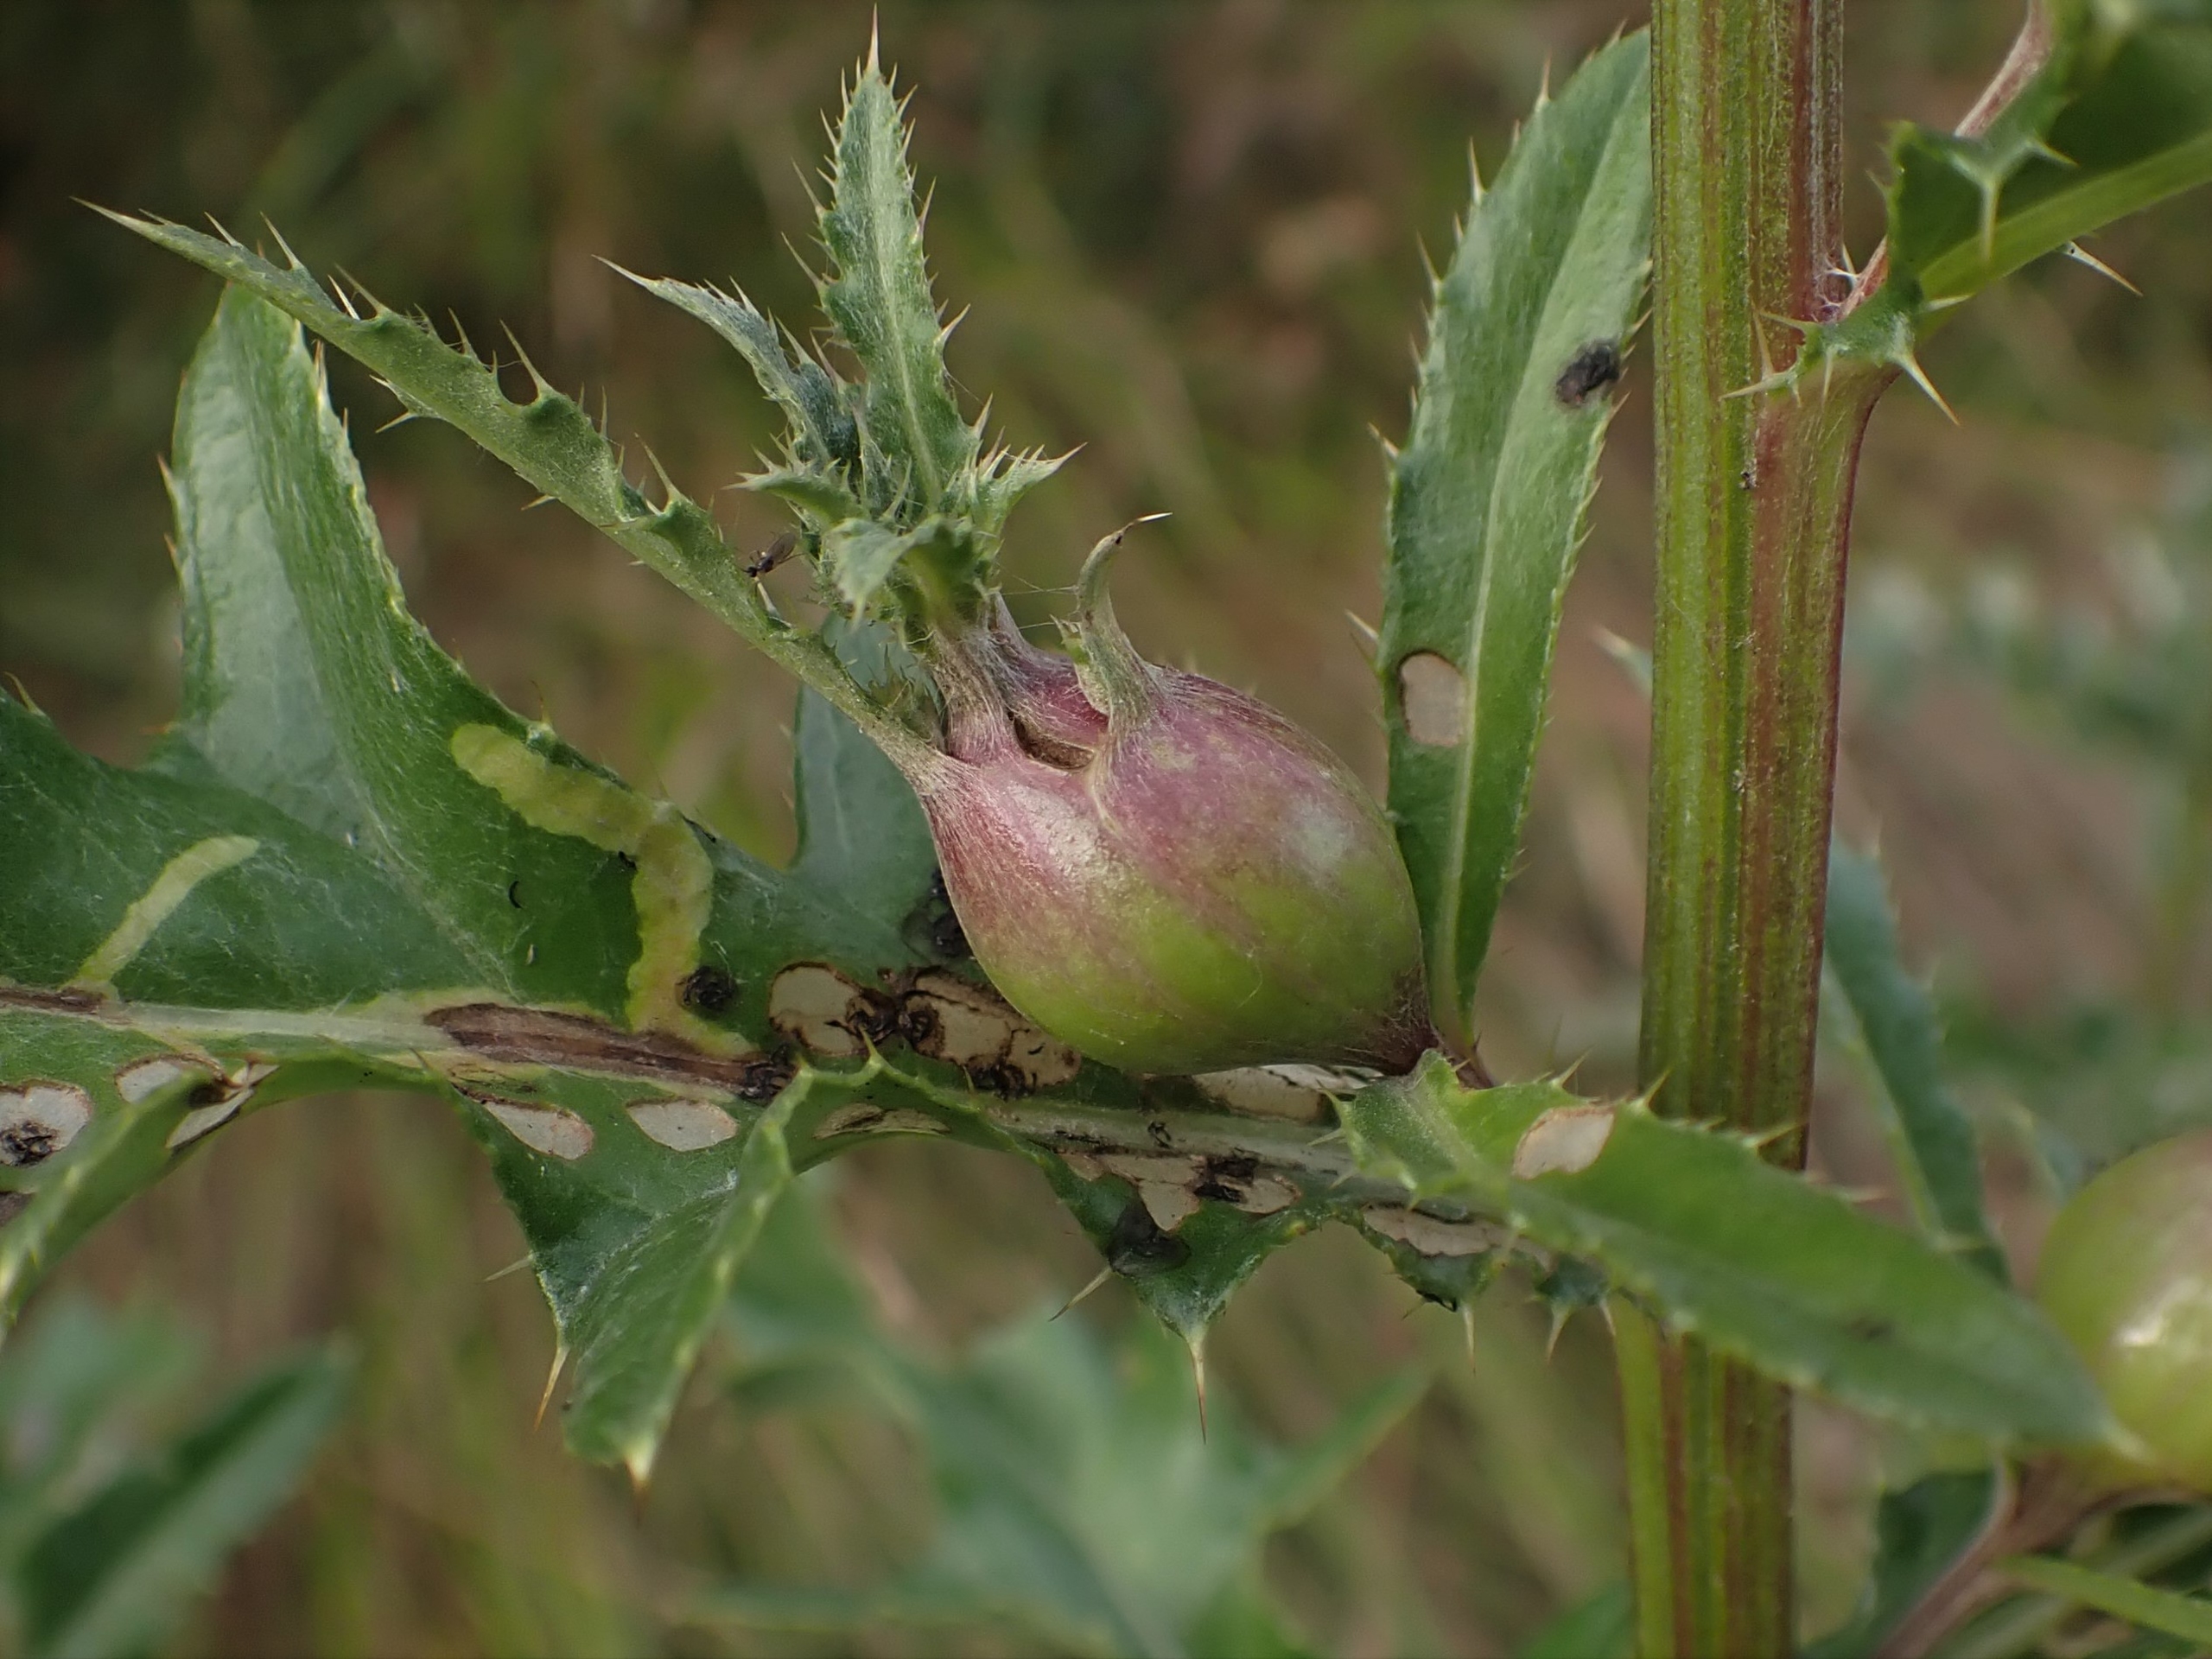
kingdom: Animalia
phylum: Arthropoda
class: Insecta
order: Diptera
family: Tephritidae
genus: Urophora
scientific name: Urophora cardui
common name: Tidselbåndflue
